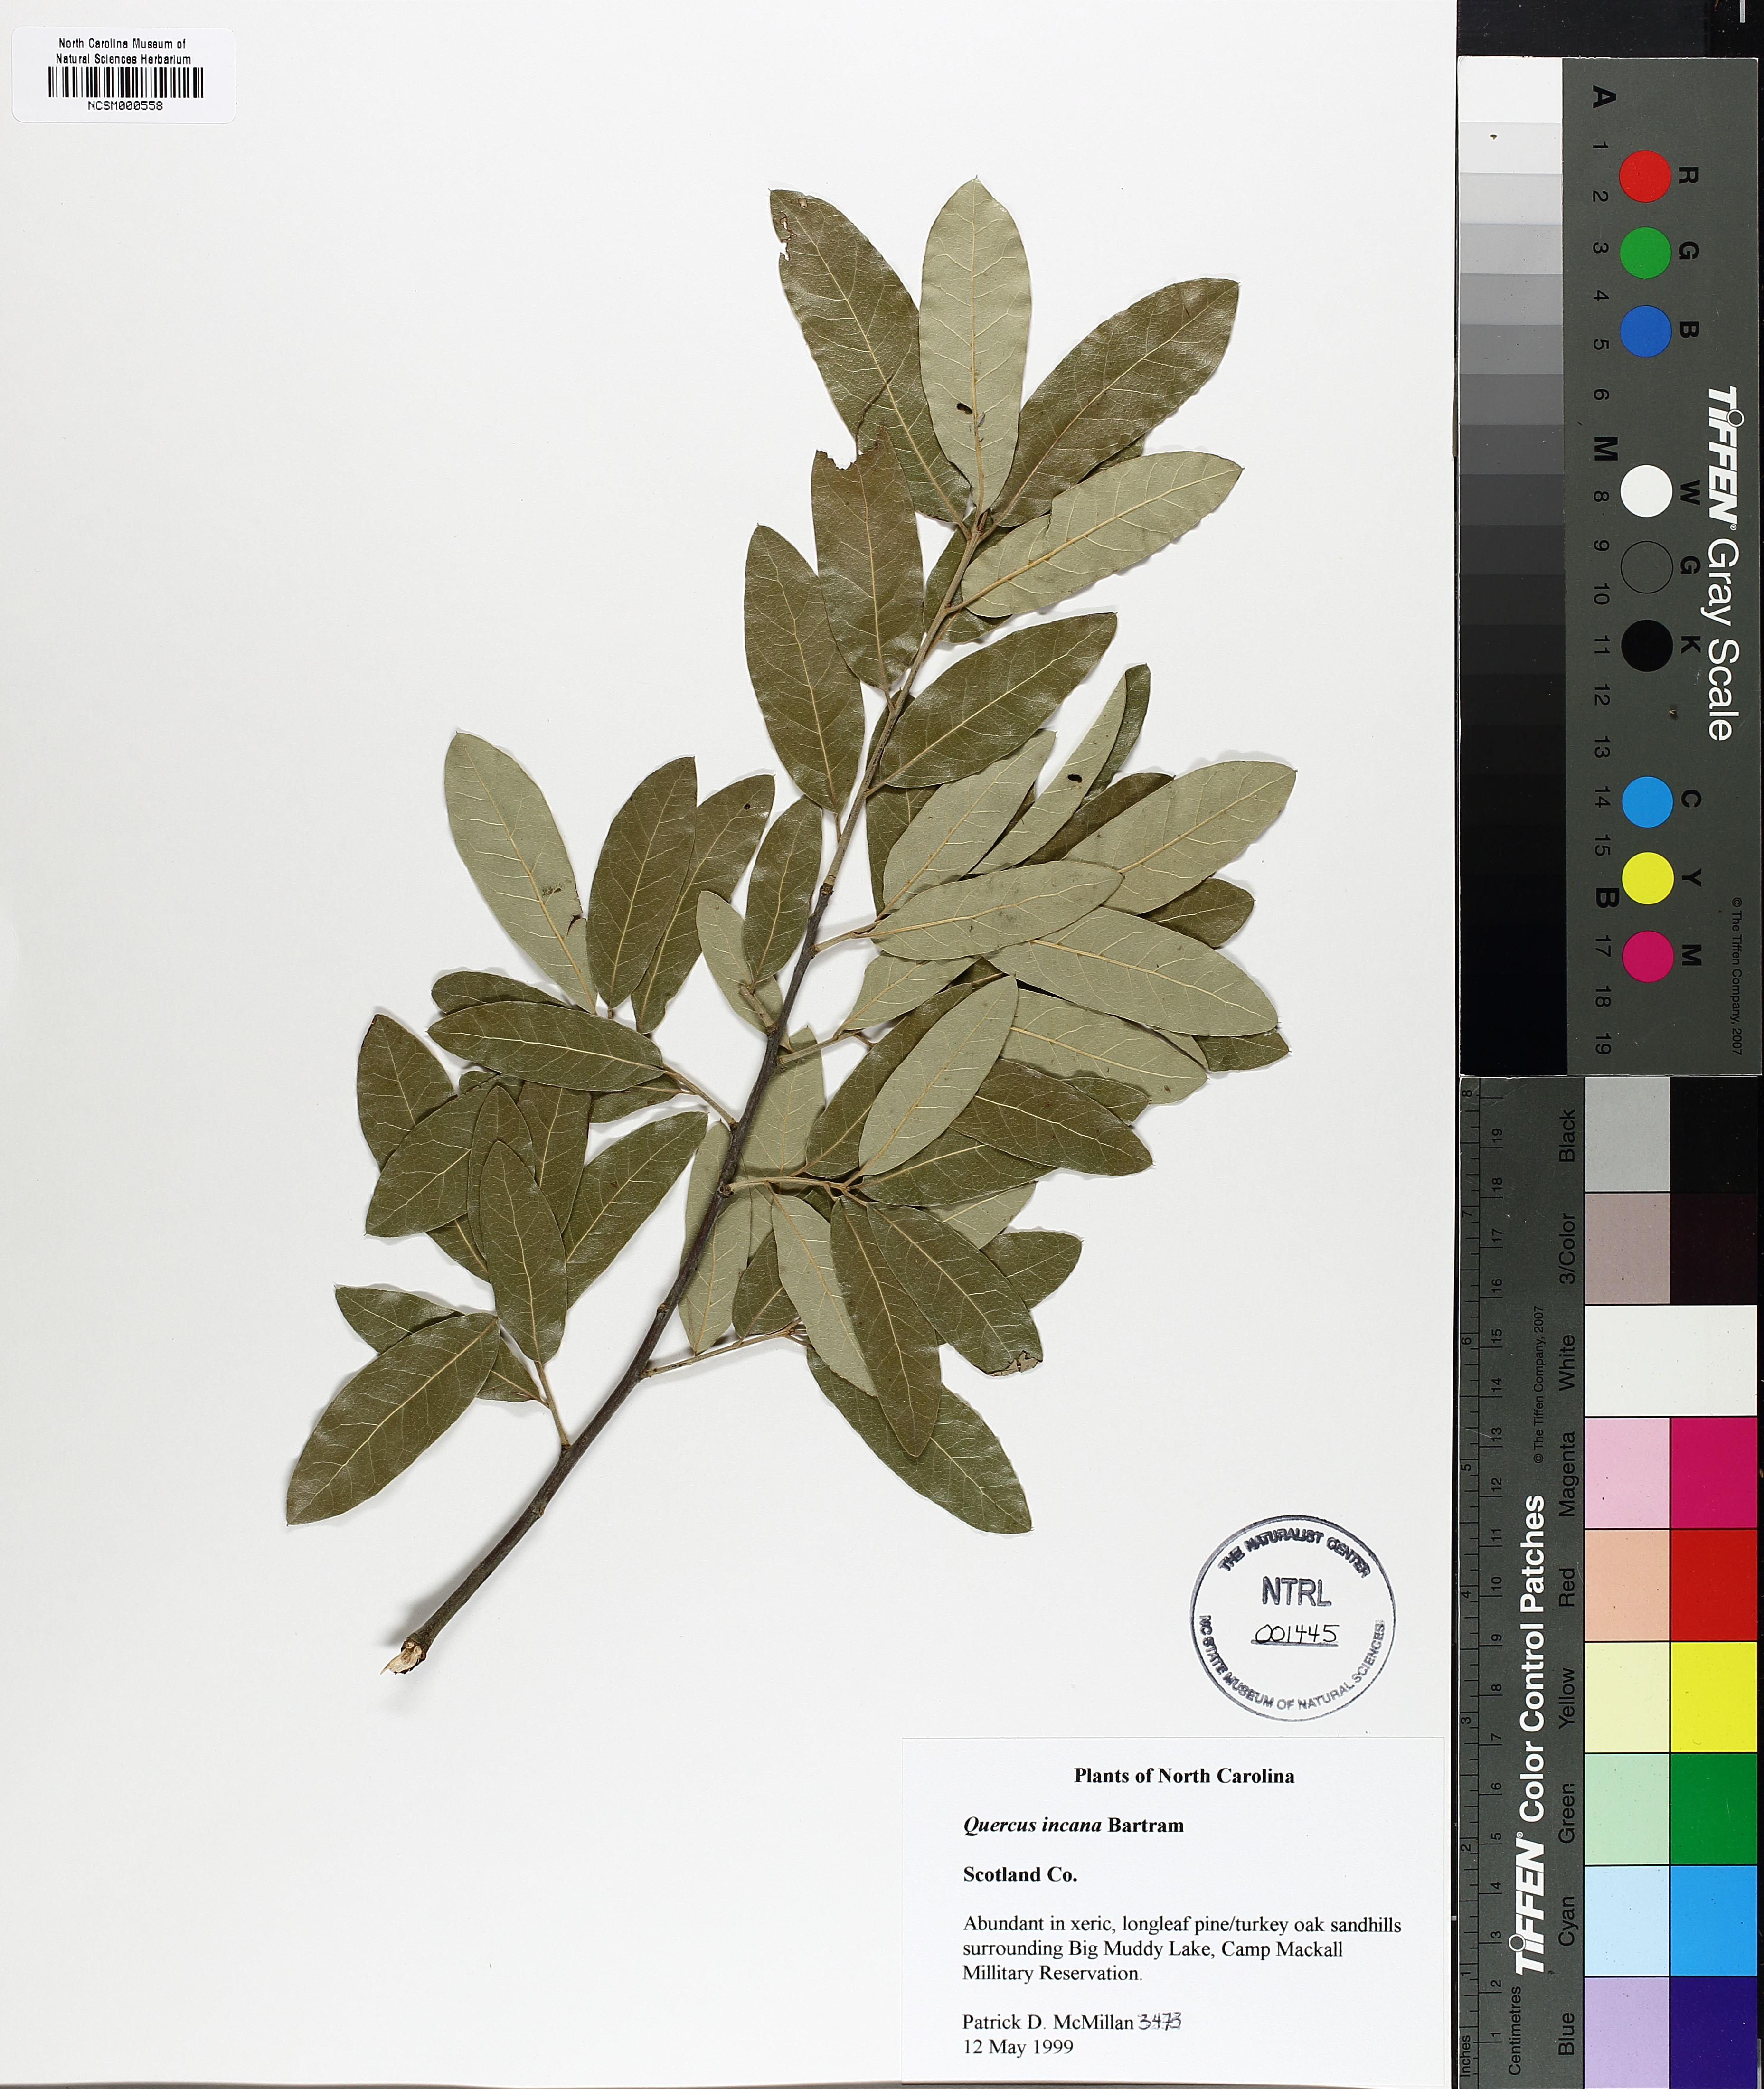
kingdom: Plantae
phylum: Tracheophyta
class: Magnoliopsida
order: Fagales
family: Fagaceae
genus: Quercus
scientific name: Quercus incana
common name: Bluejack oak
